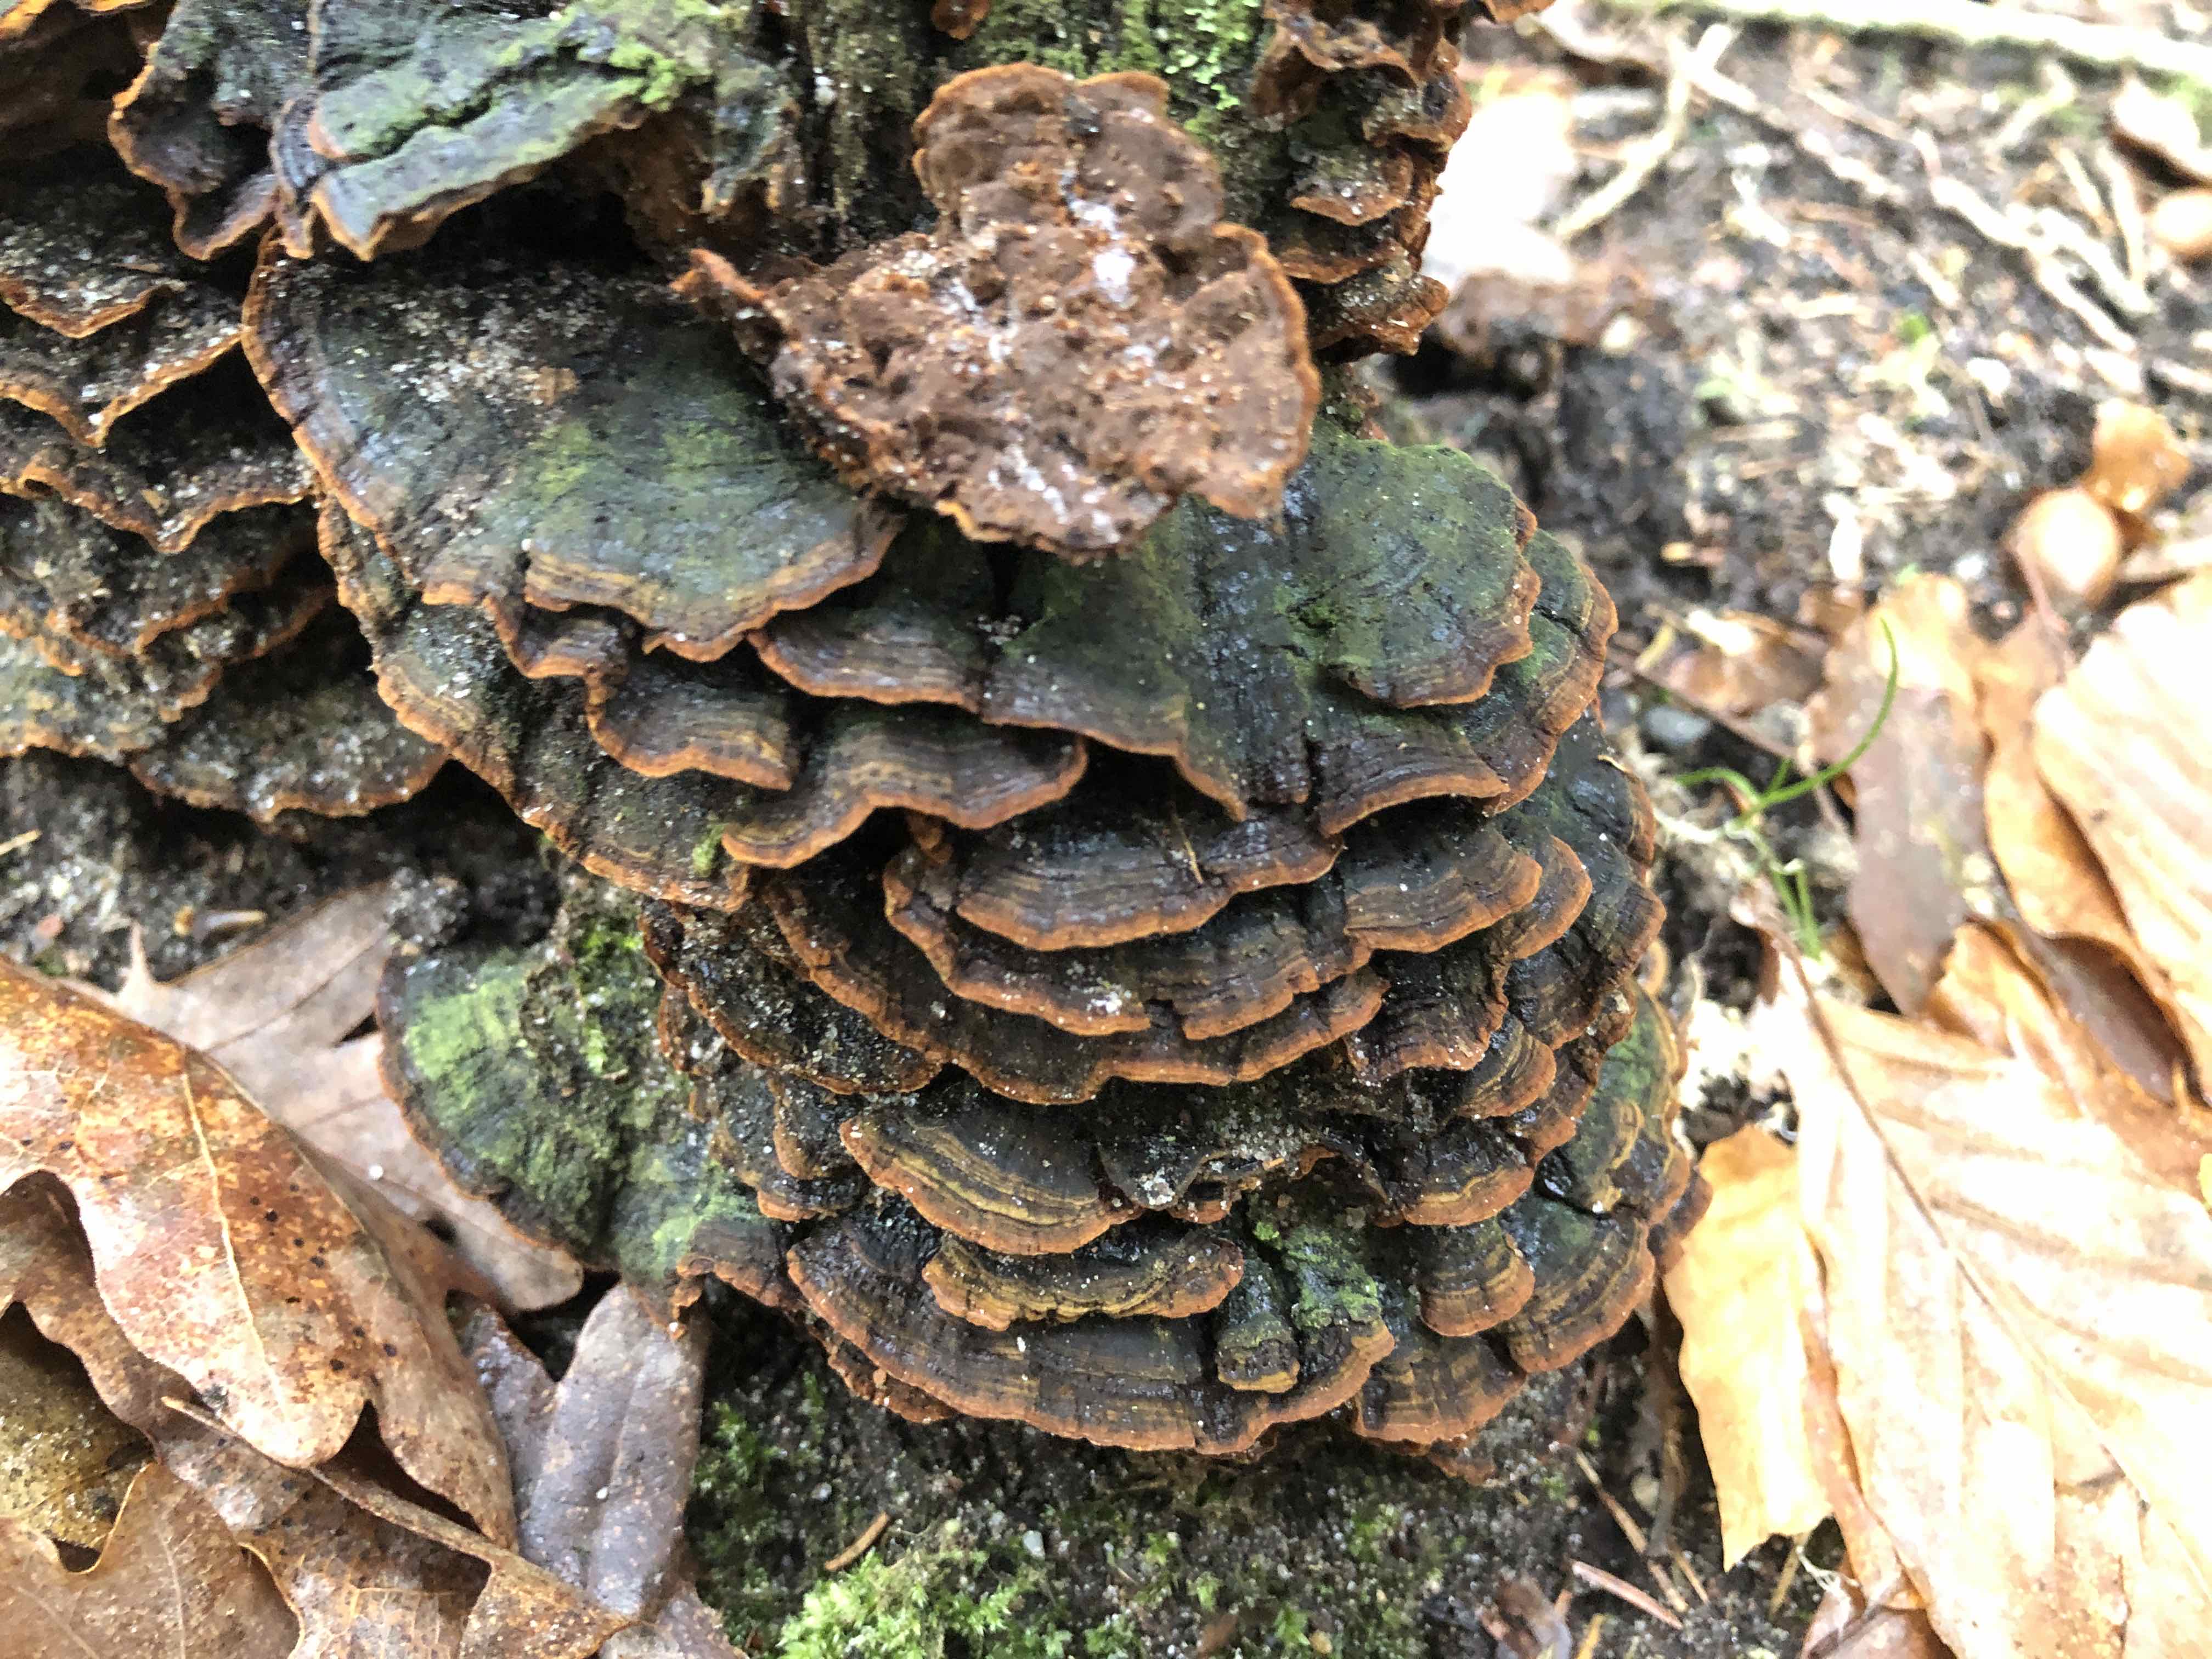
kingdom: Fungi
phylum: Basidiomycota
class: Agaricomycetes
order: Hymenochaetales
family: Hymenochaetaceae
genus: Hymenochaete
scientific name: Hymenochaete rubiginosa
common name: stiv ruslædersvamp
